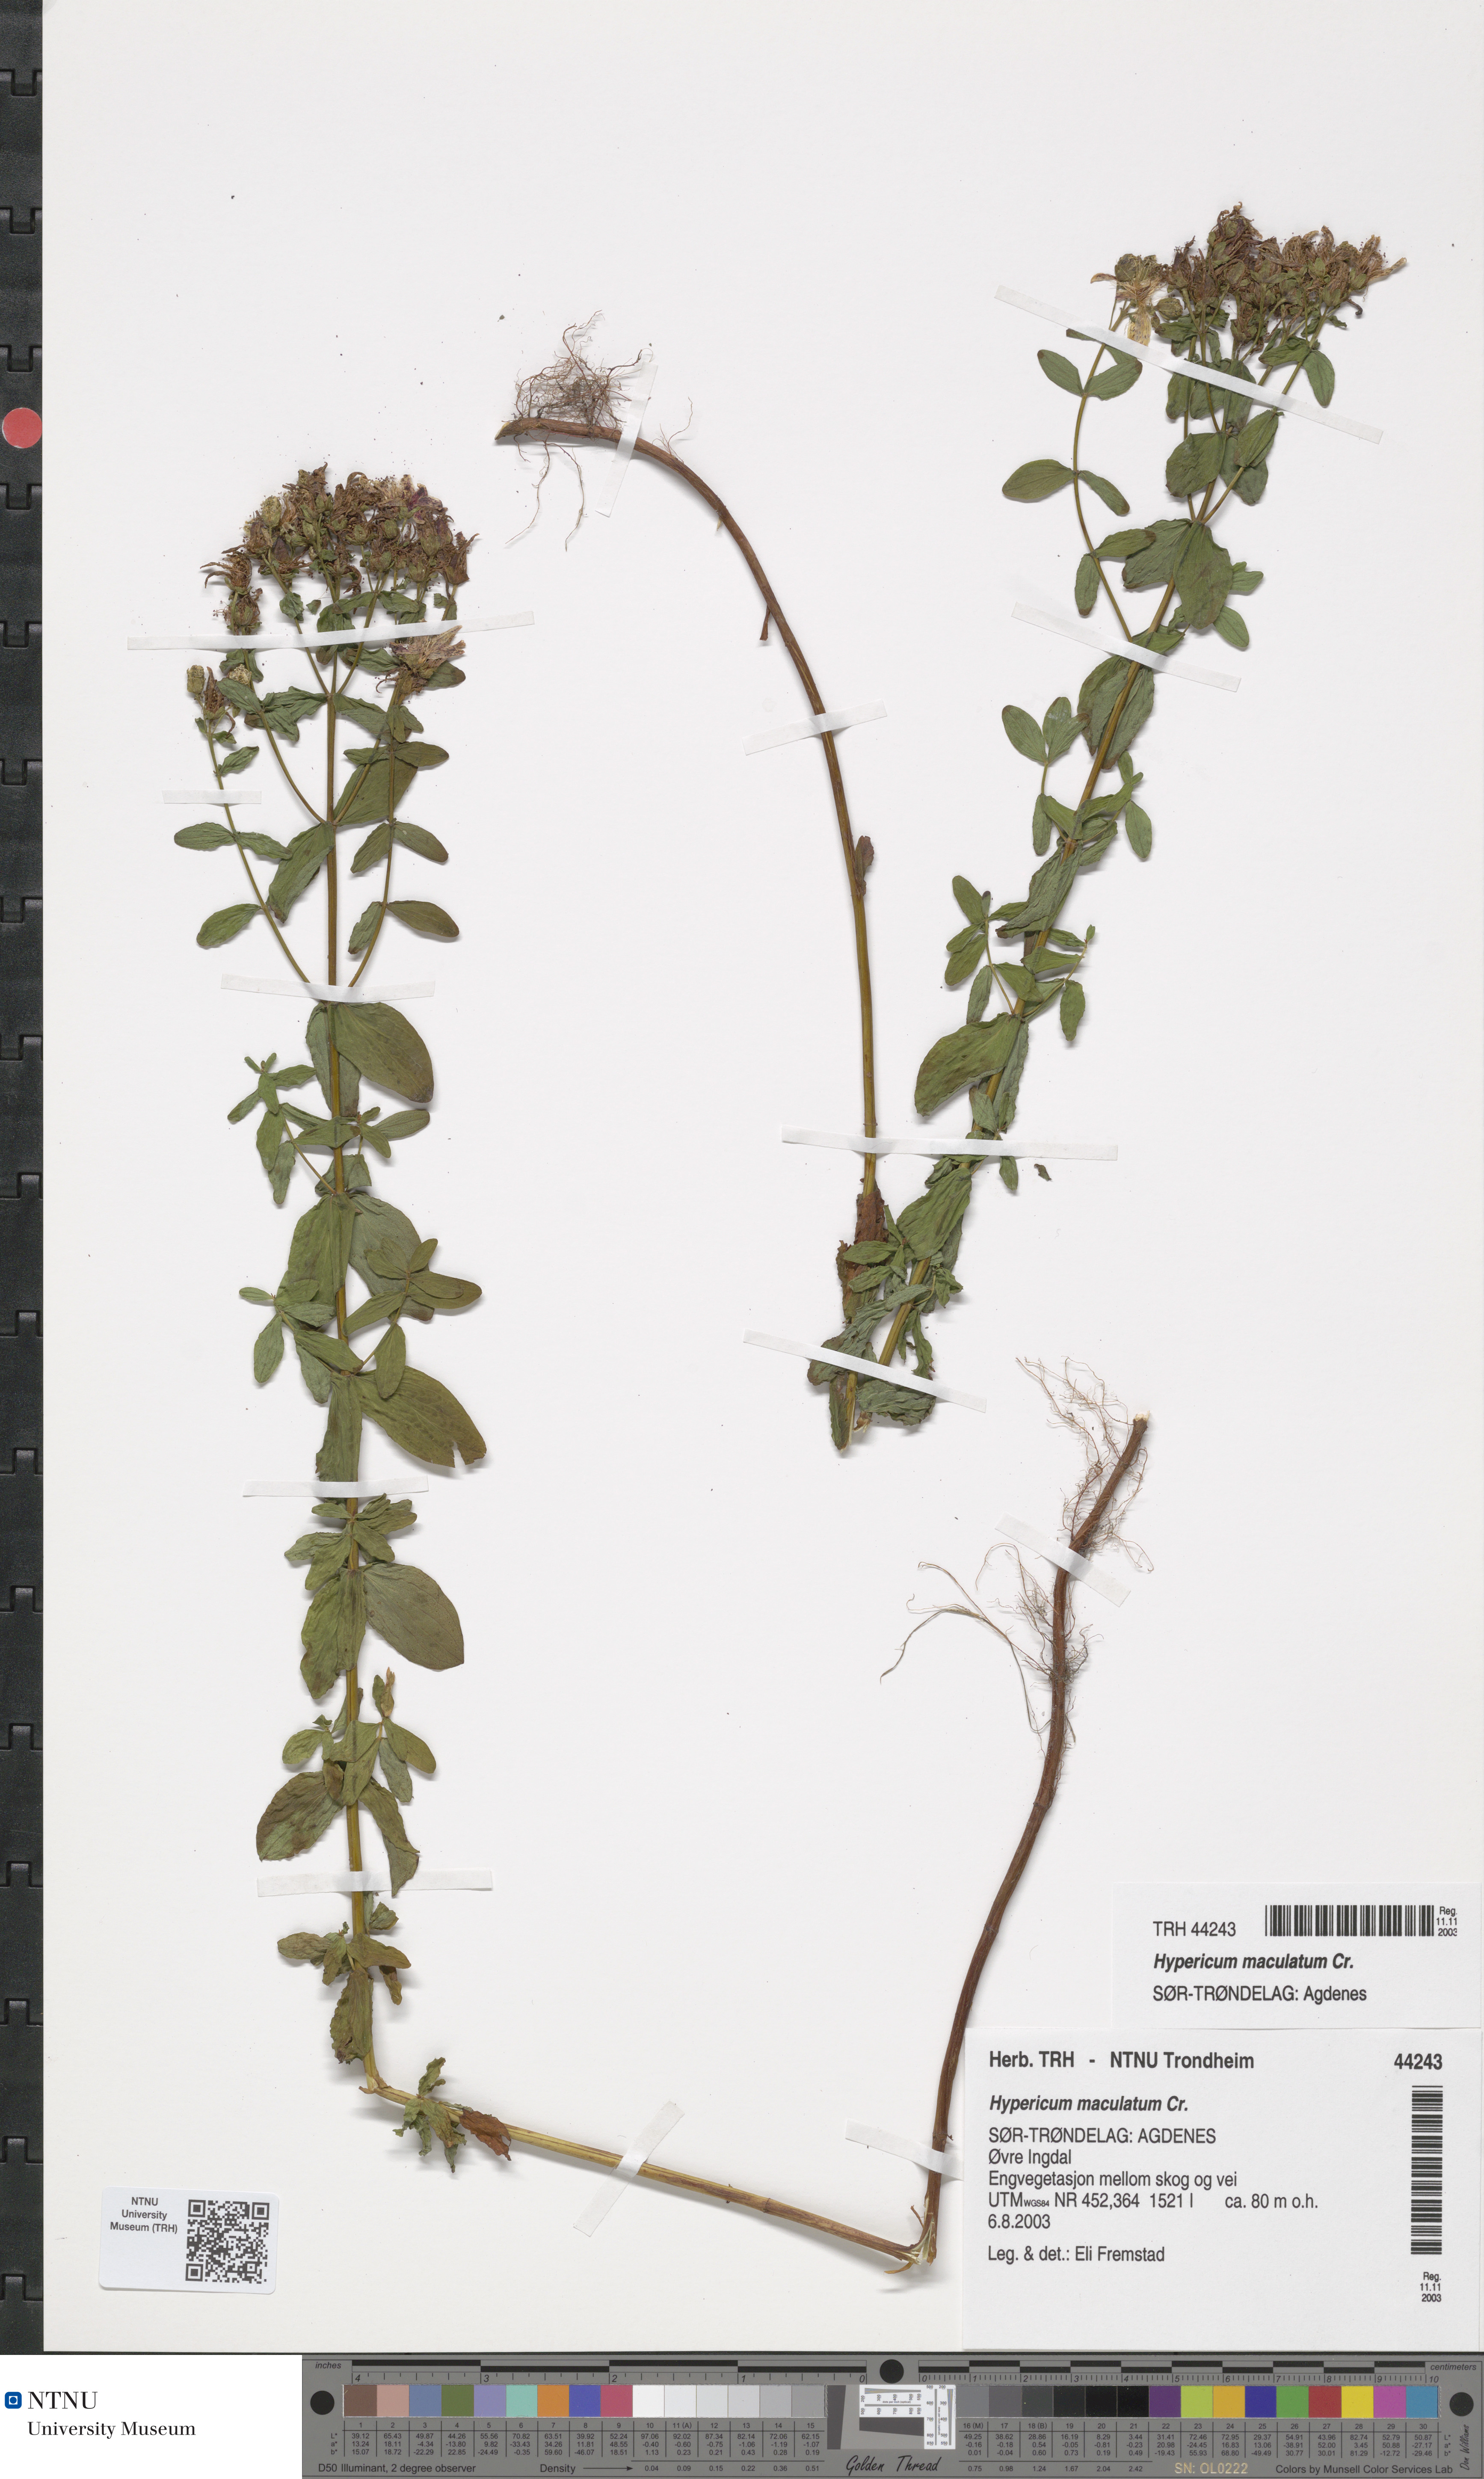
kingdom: Plantae
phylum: Tracheophyta
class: Magnoliopsida
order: Malpighiales
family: Hypericaceae
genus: Hypericum
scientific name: Hypericum maculatum
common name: Imperforate st. john's-wort
